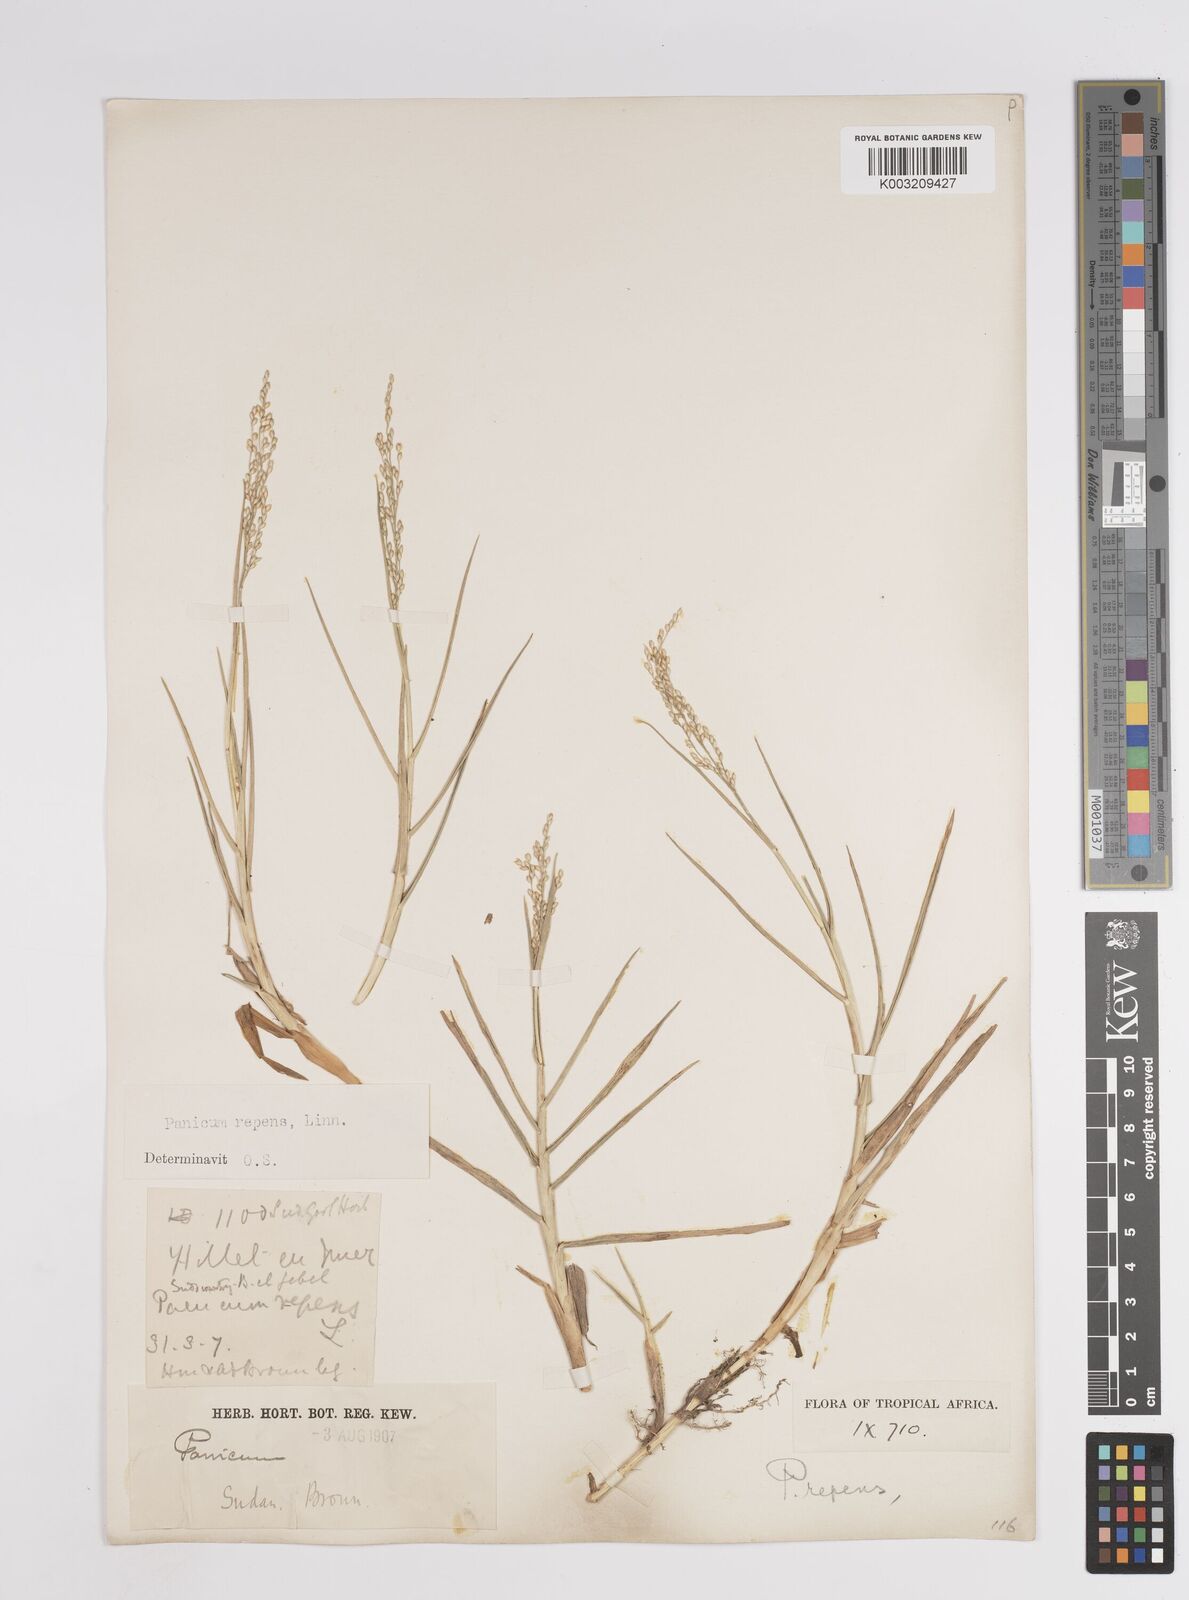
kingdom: Plantae
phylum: Tracheophyta
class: Liliopsida
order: Poales
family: Poaceae
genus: Panicum
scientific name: Panicum repens
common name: Torpedo grass
